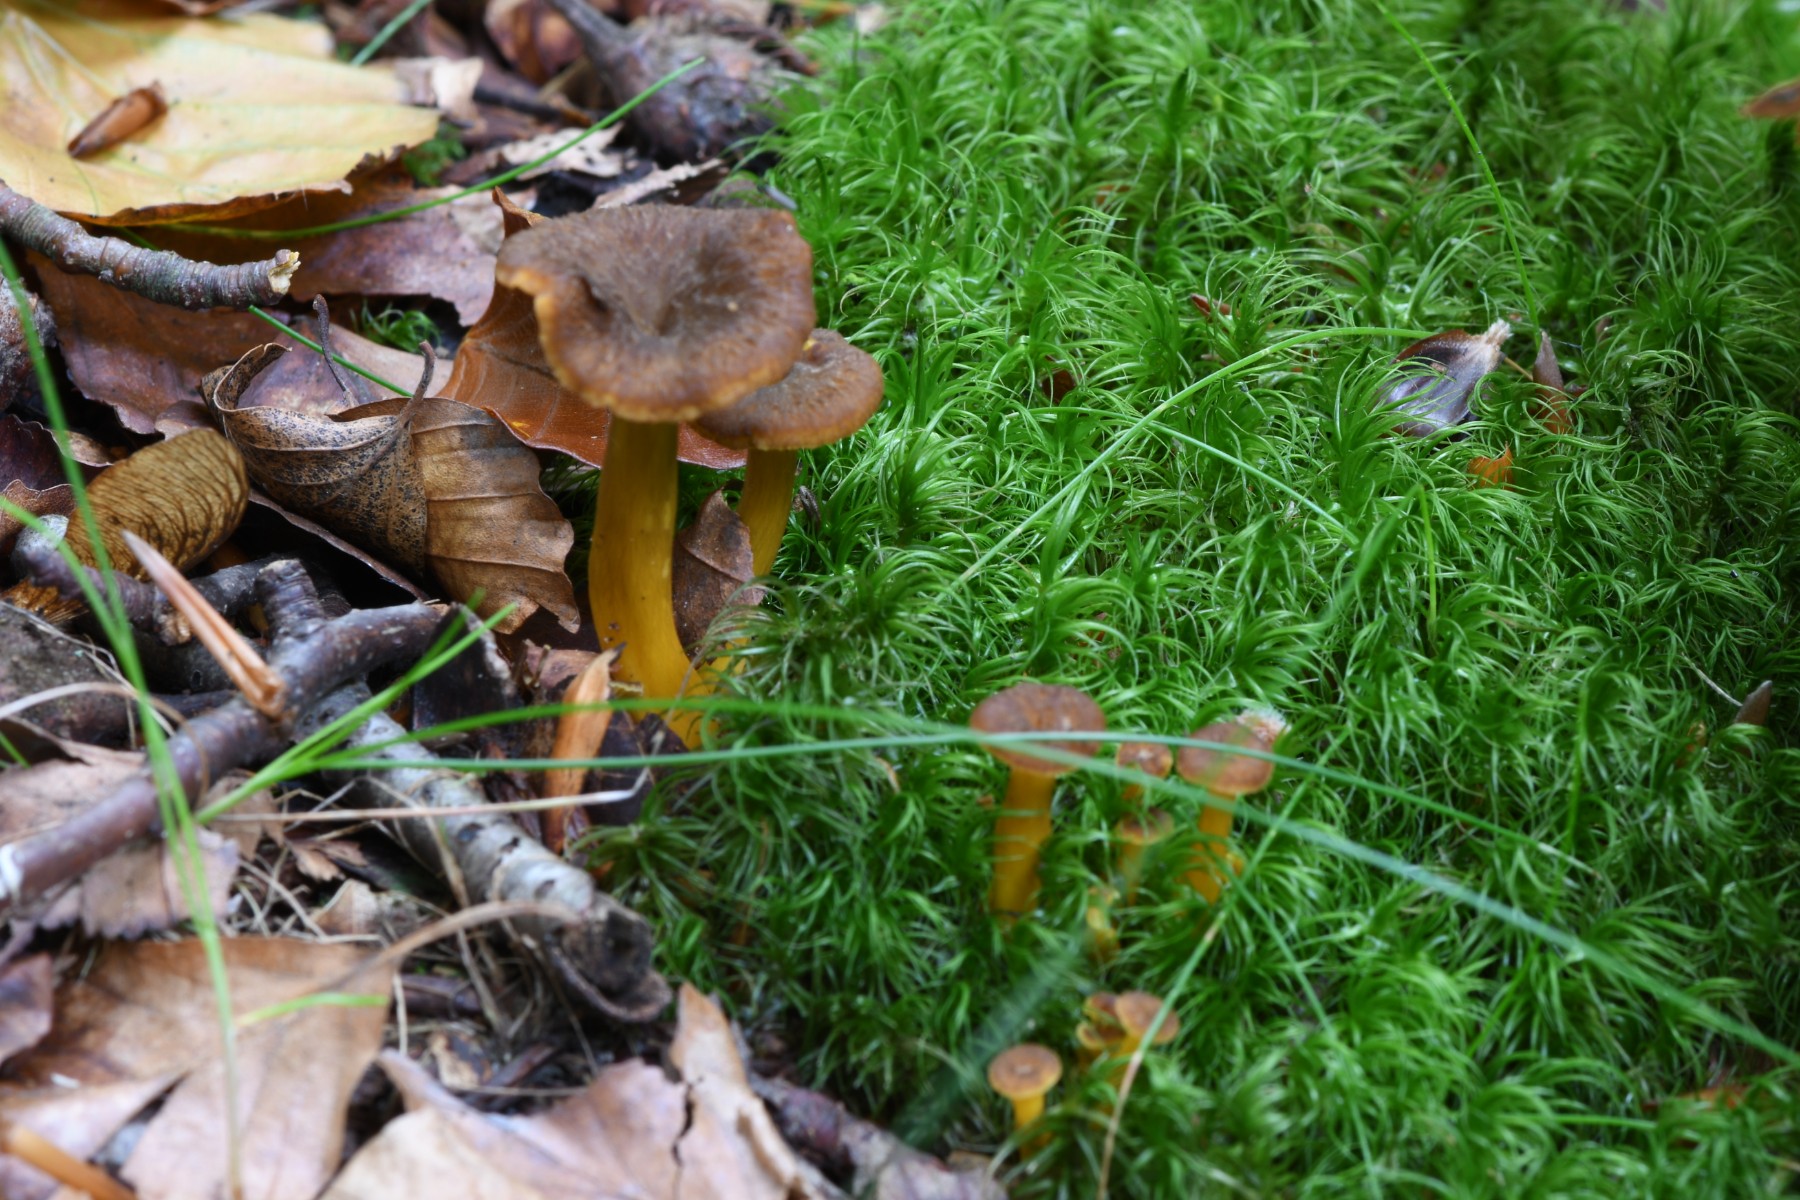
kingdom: Fungi
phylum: Basidiomycota
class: Agaricomycetes
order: Cantharellales
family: Hydnaceae
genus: Craterellus
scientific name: Craterellus tubaeformis
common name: tragt-kantarel
